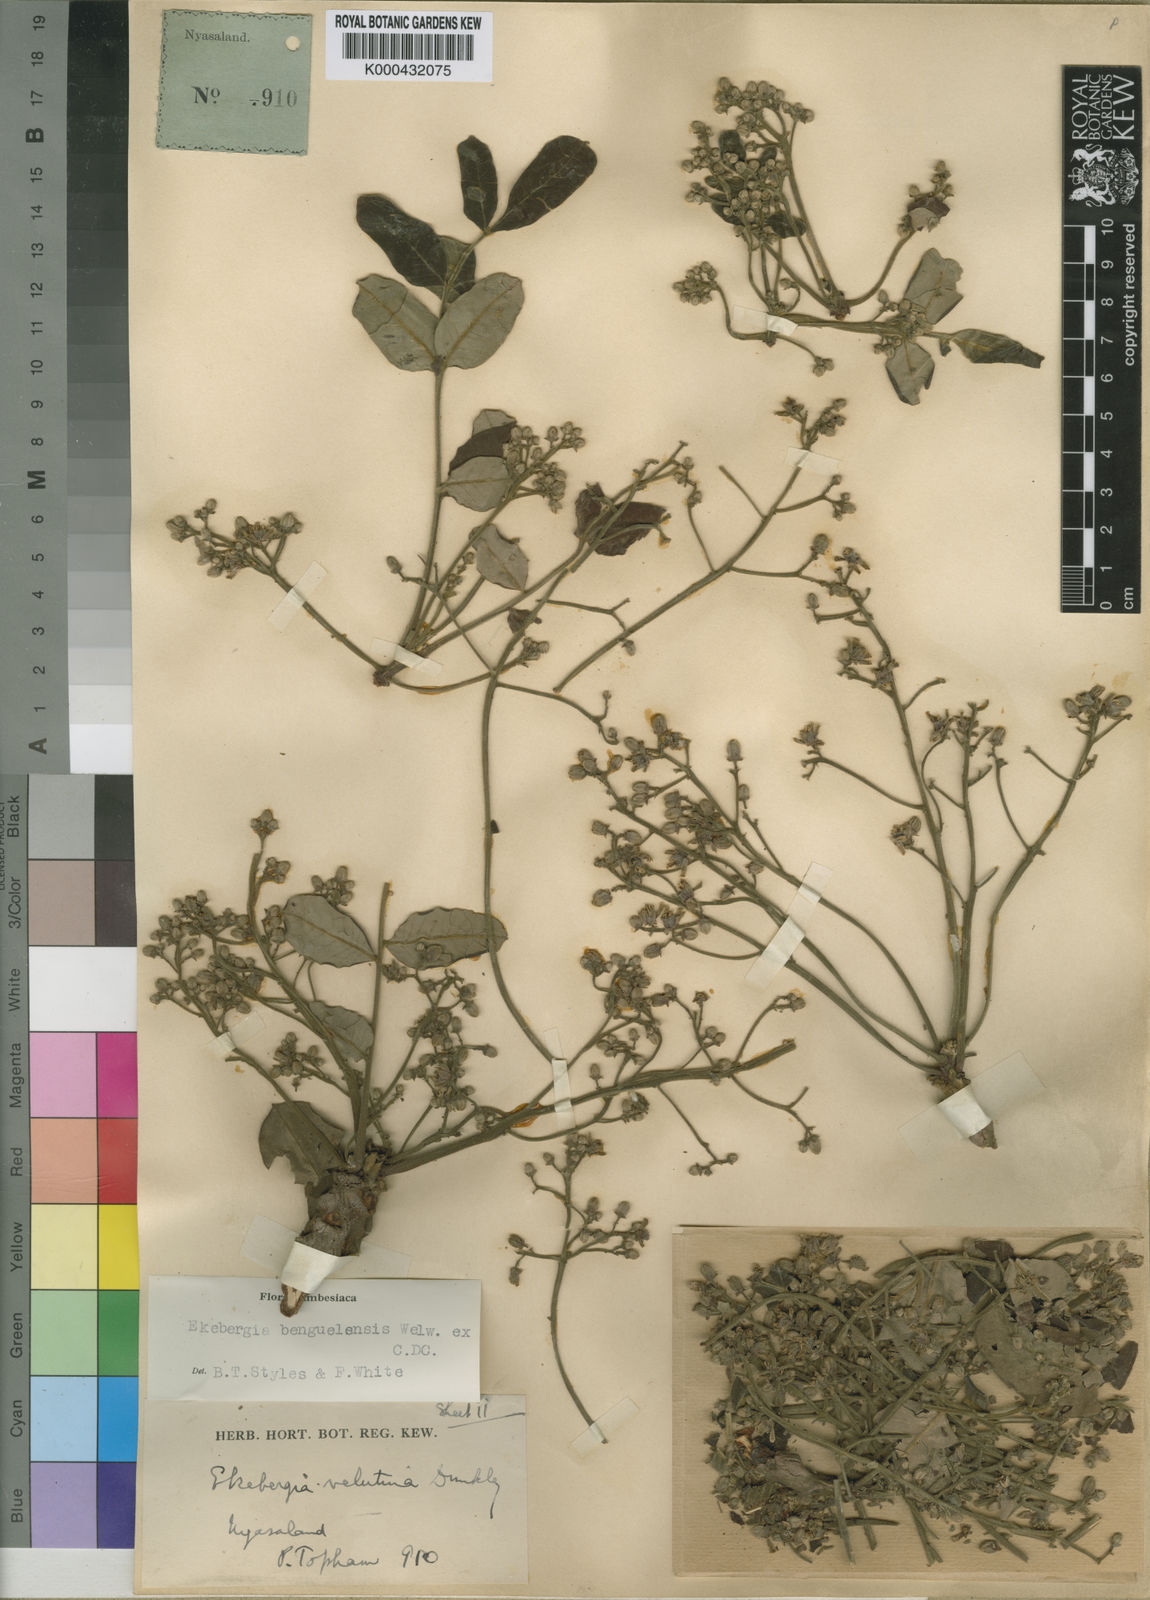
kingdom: Plantae
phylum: Tracheophyta
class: Magnoliopsida
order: Sapindales
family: Meliaceae
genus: Ekebergia
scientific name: Ekebergia benguelensis
